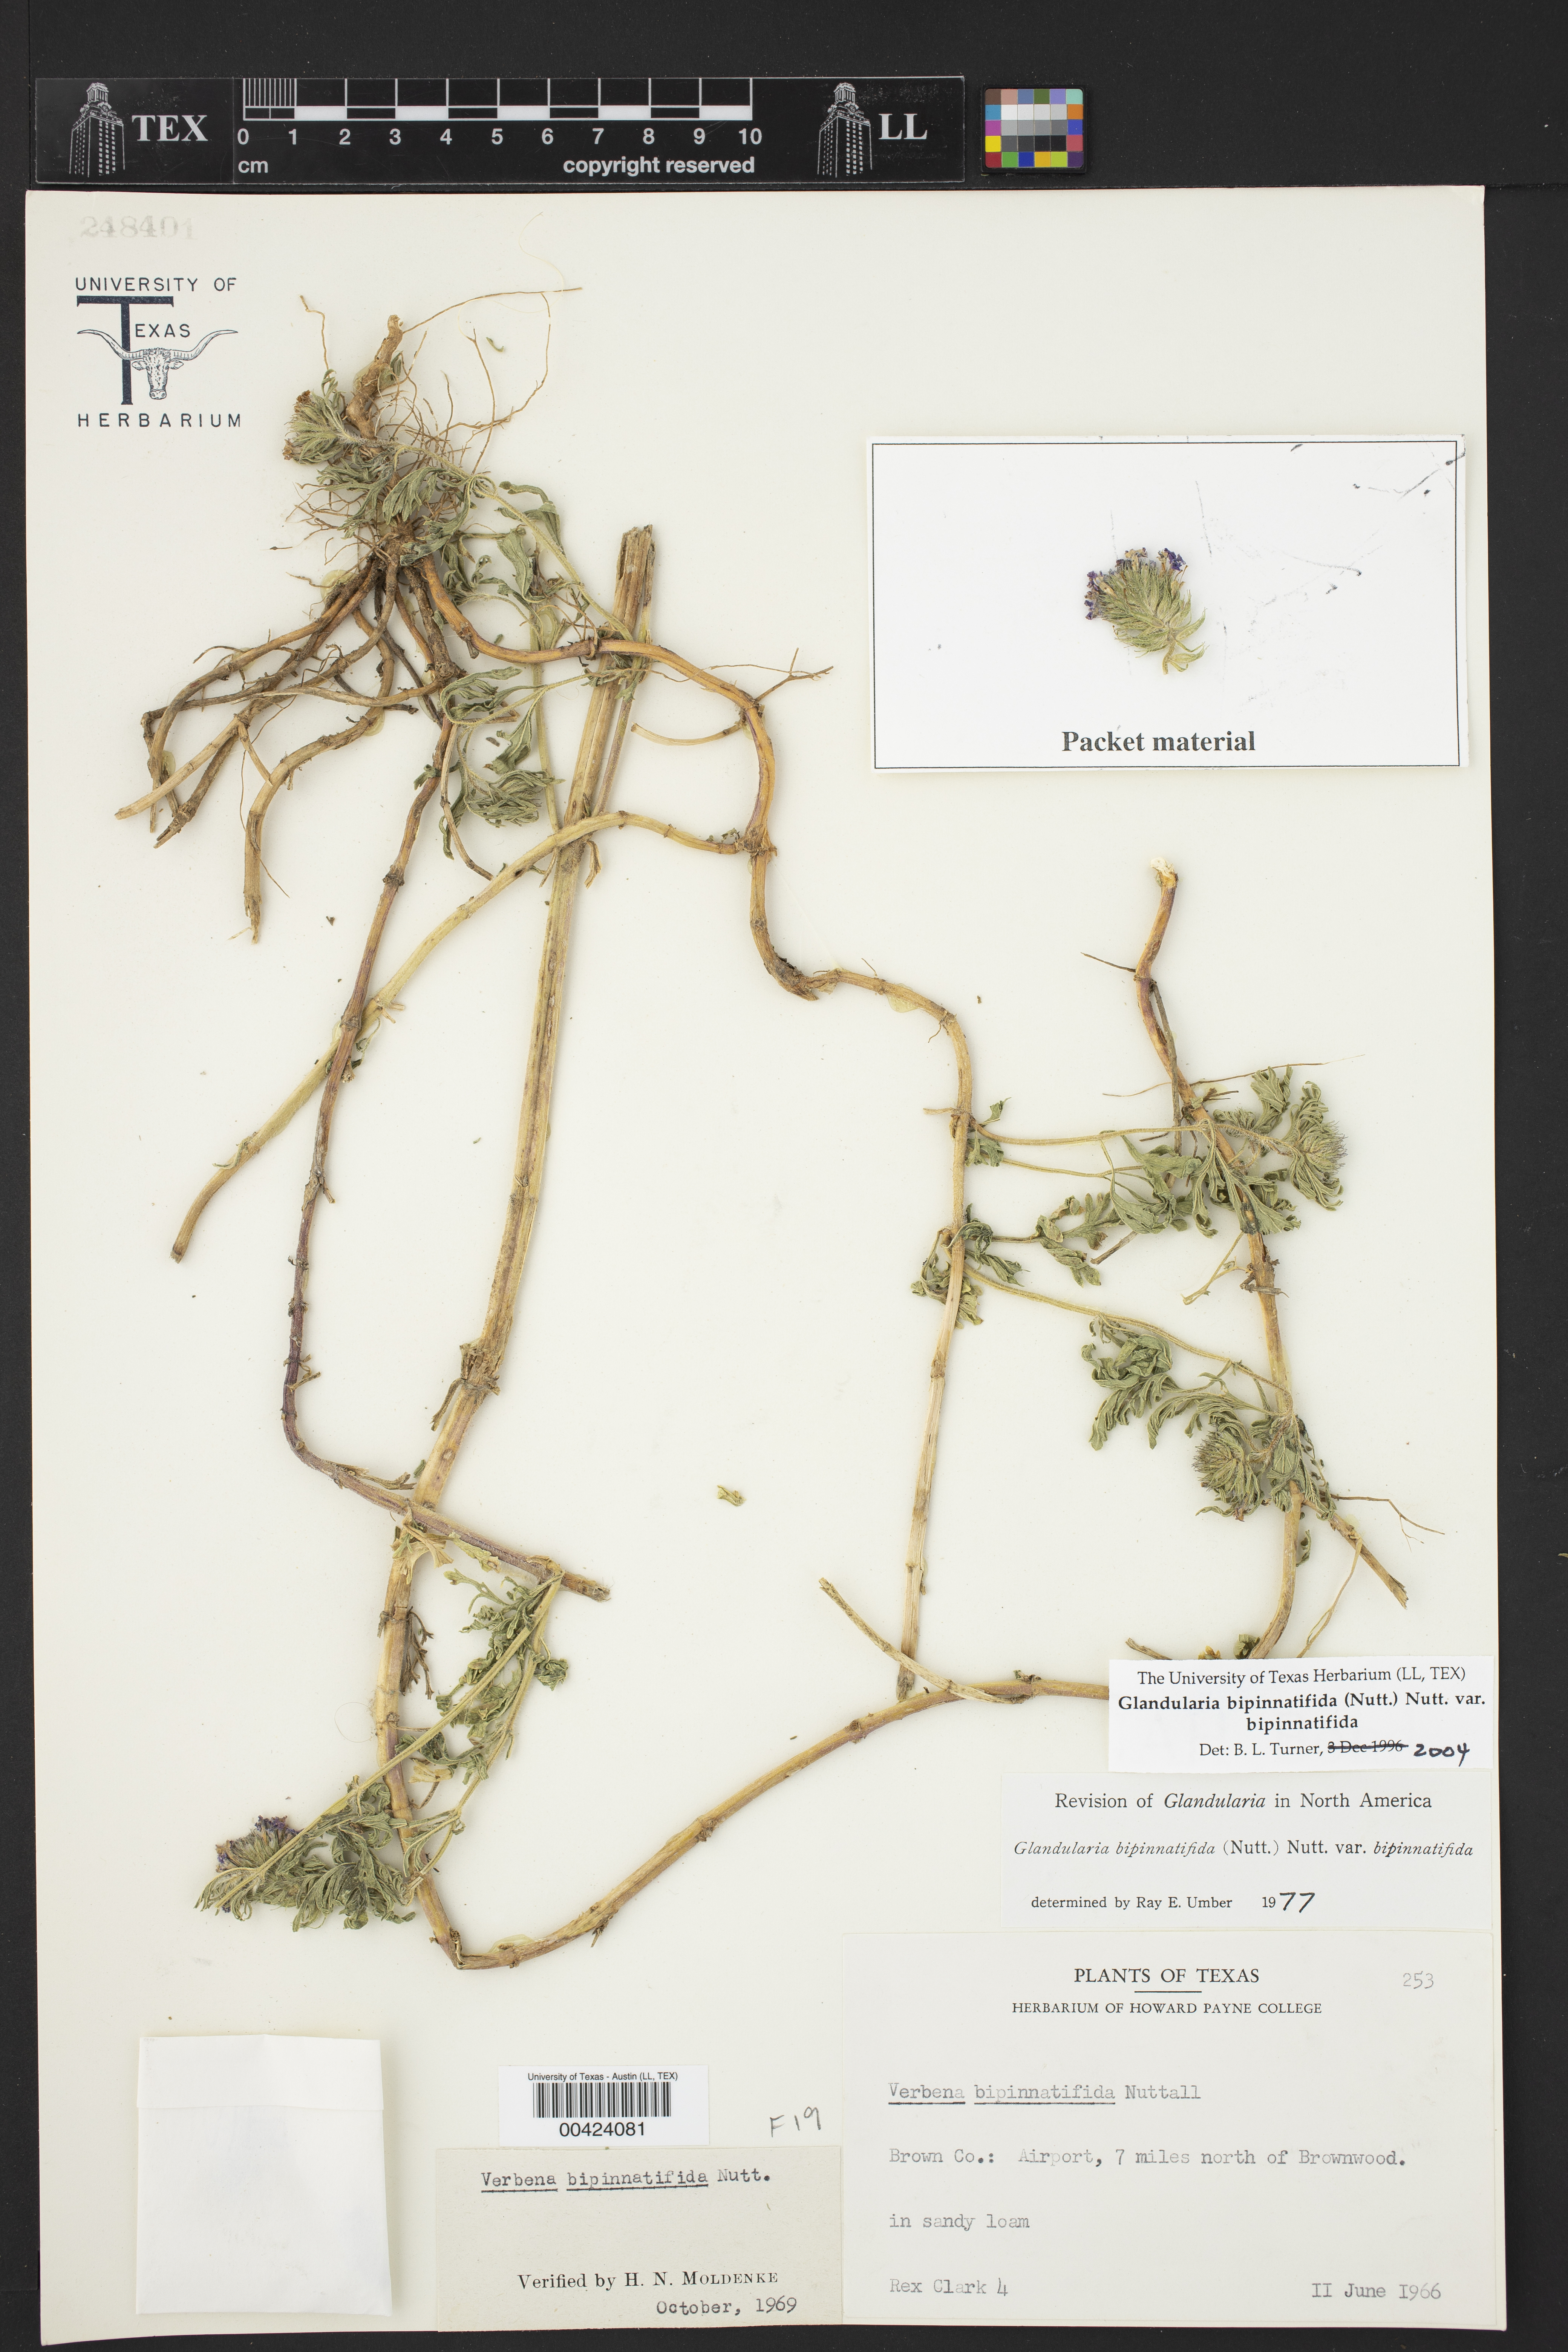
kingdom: Plantae
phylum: Tracheophyta
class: Magnoliopsida
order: Lamiales
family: Verbenaceae
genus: Verbena
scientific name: Verbena bipinnatifida
